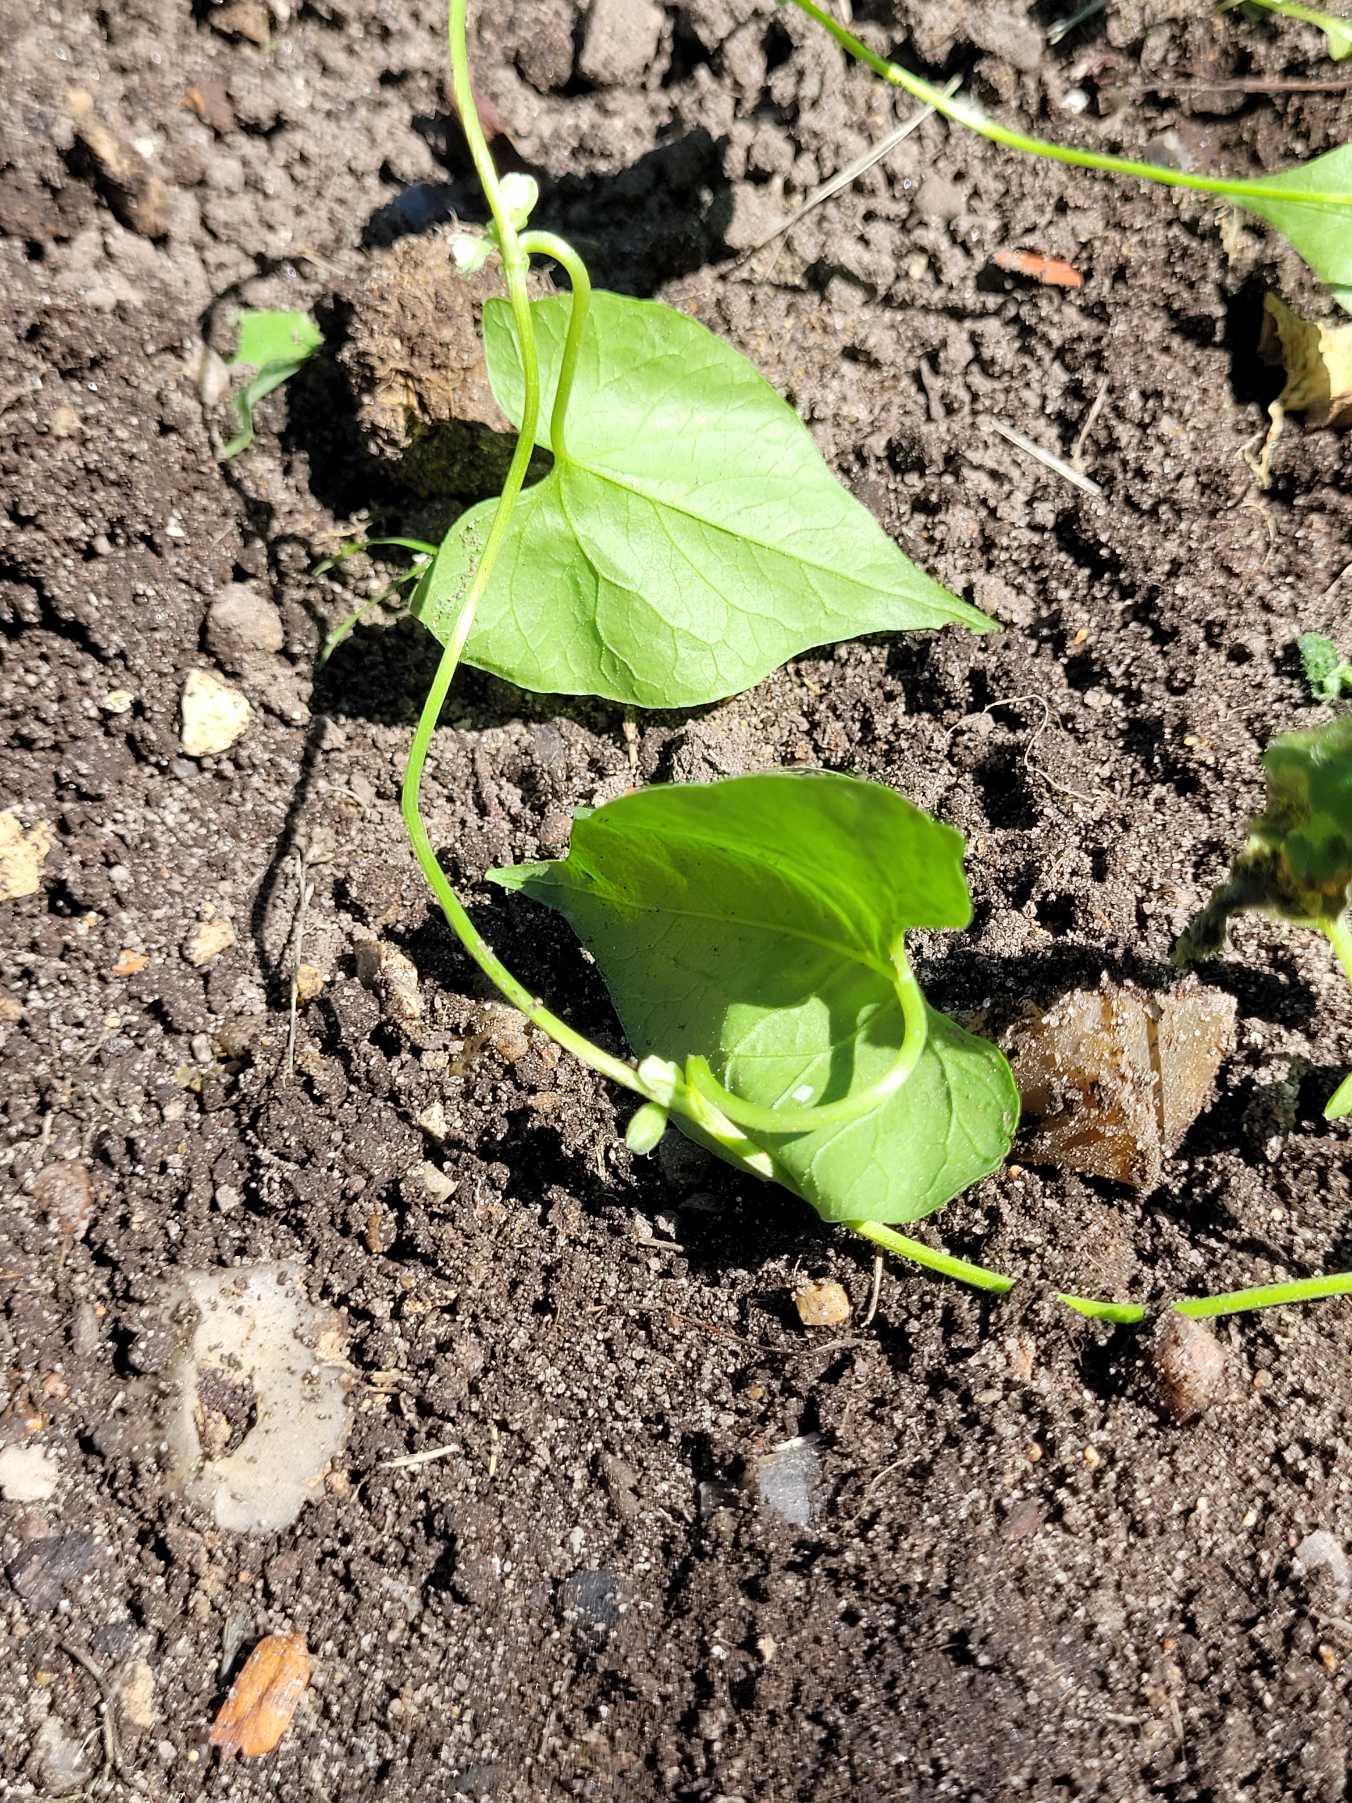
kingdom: Plantae
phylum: Tracheophyta
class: Magnoliopsida
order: Caryophyllales
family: Polygonaceae
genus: Fallopia
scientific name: Fallopia convolvulus
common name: Snerle-pileurt
